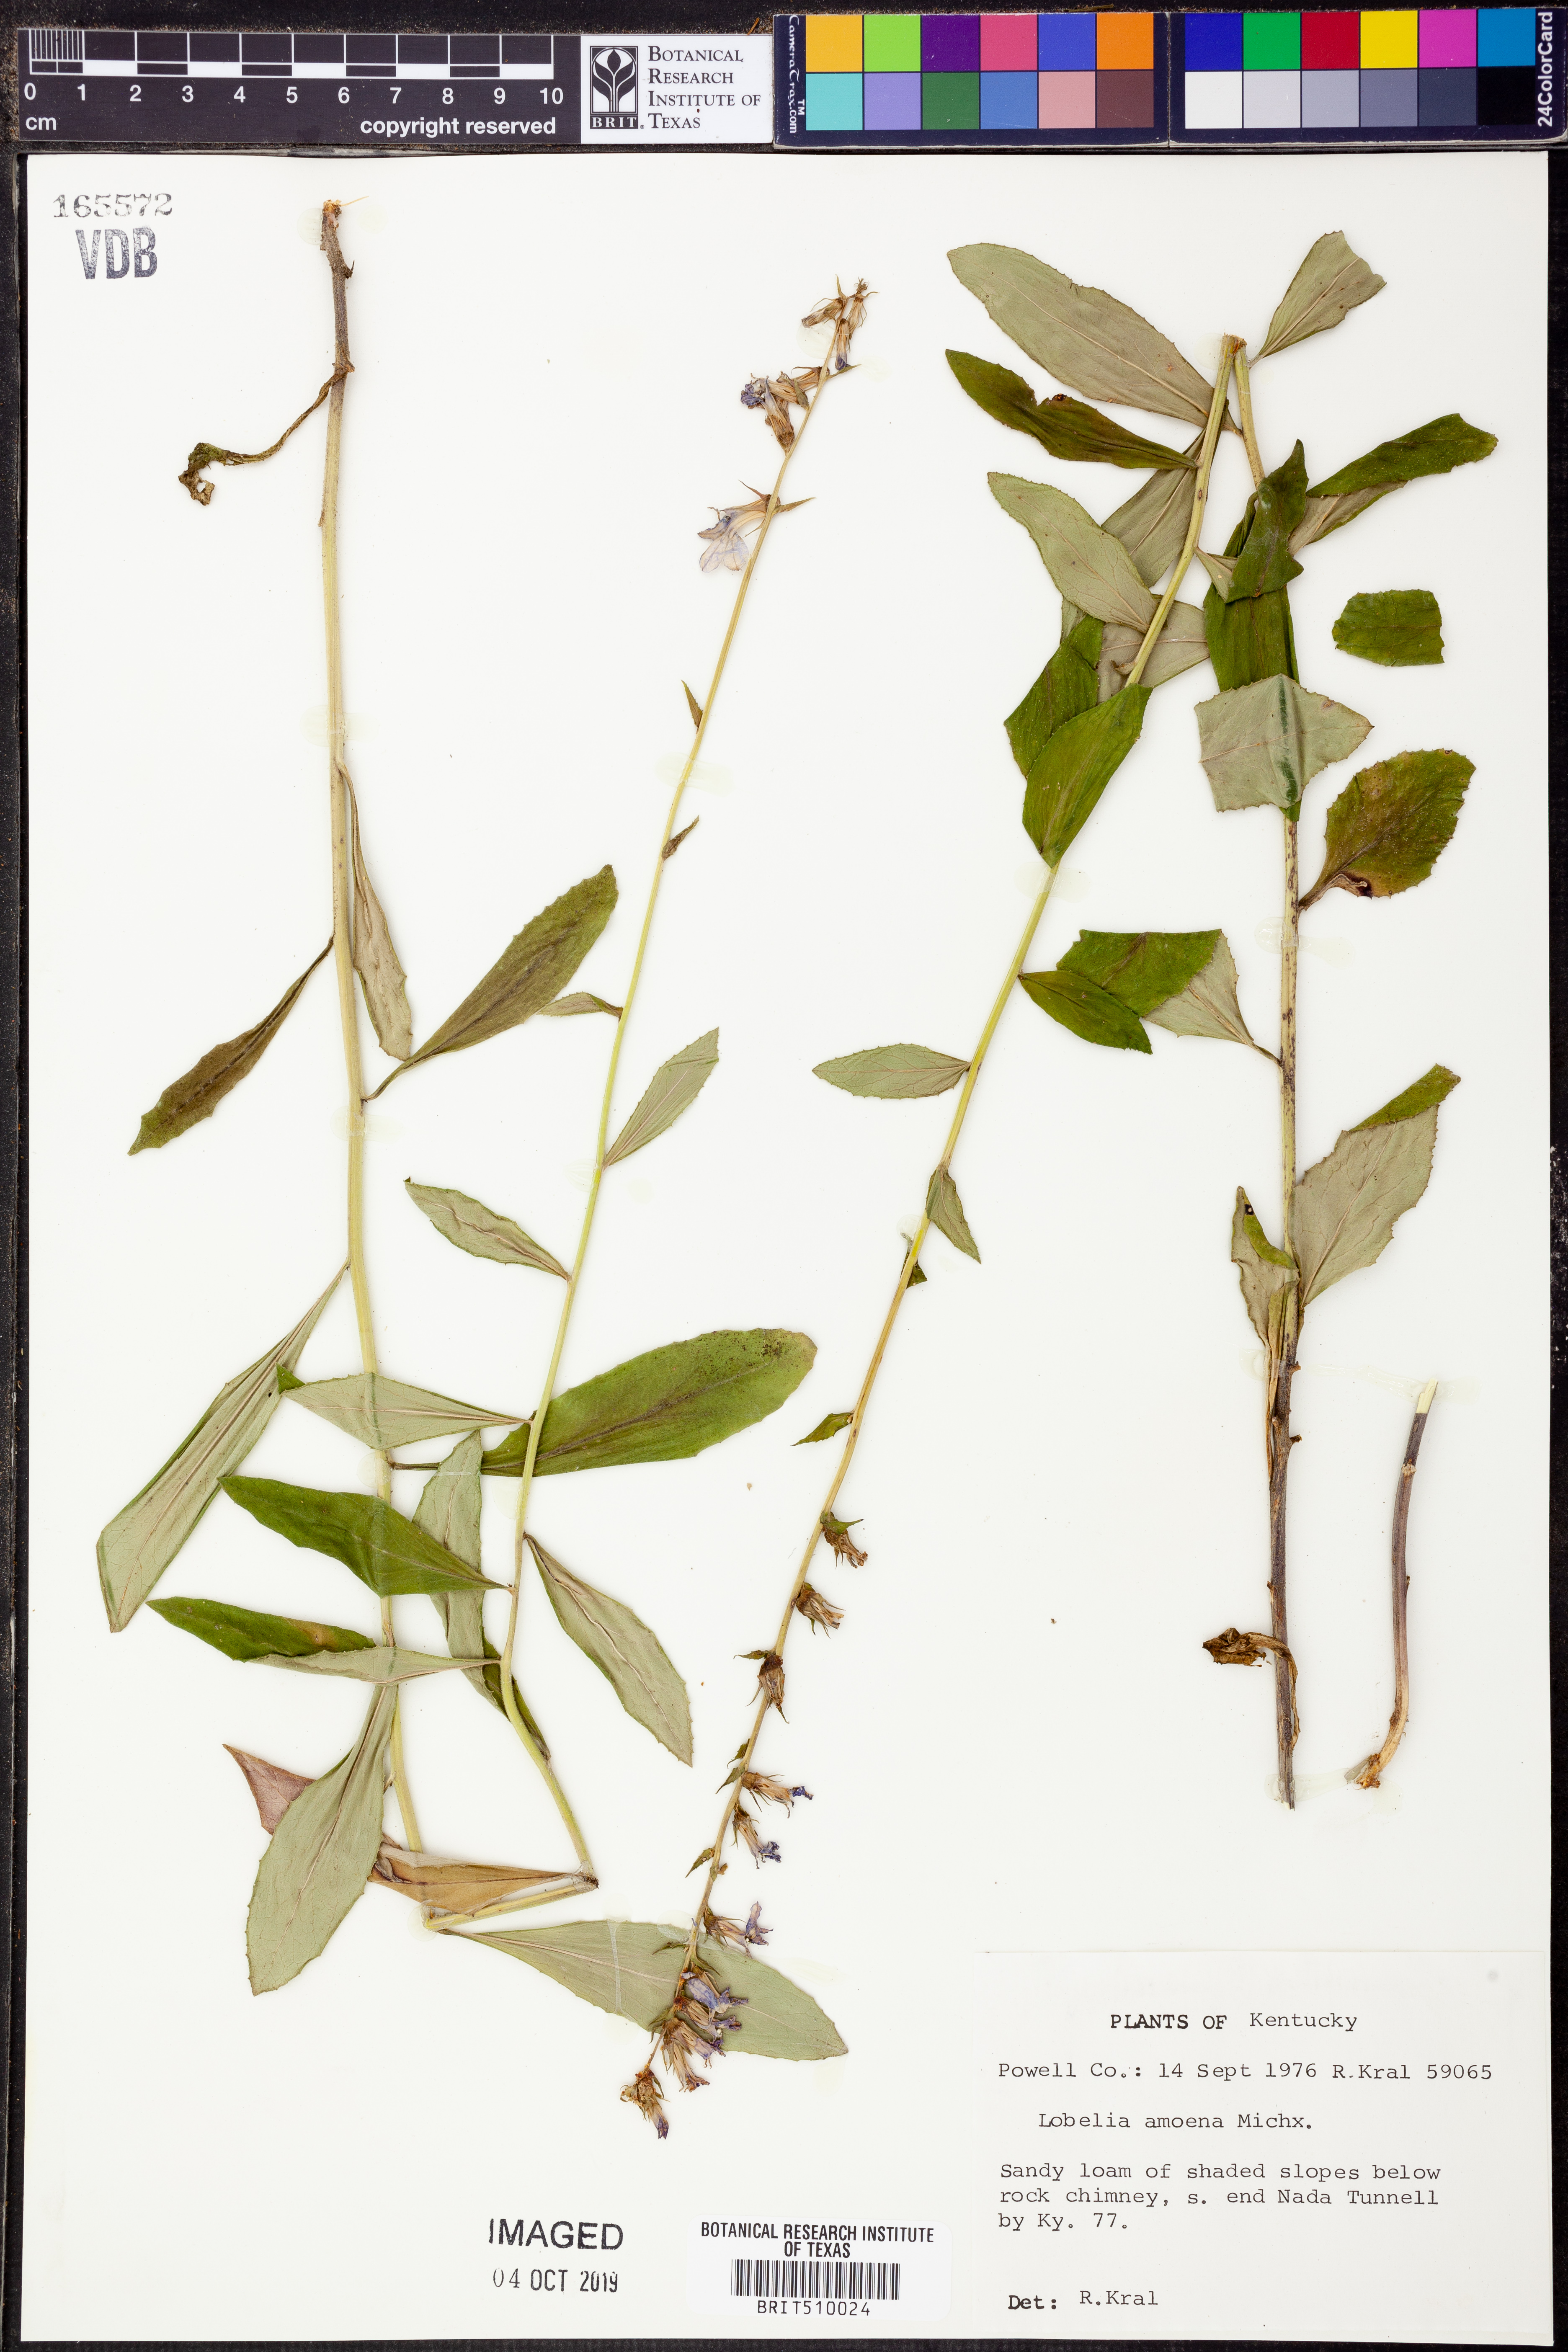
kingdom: Plantae
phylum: Tracheophyta
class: Magnoliopsida
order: Asterales
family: Campanulaceae
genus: Lobelia
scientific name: Lobelia amoena
